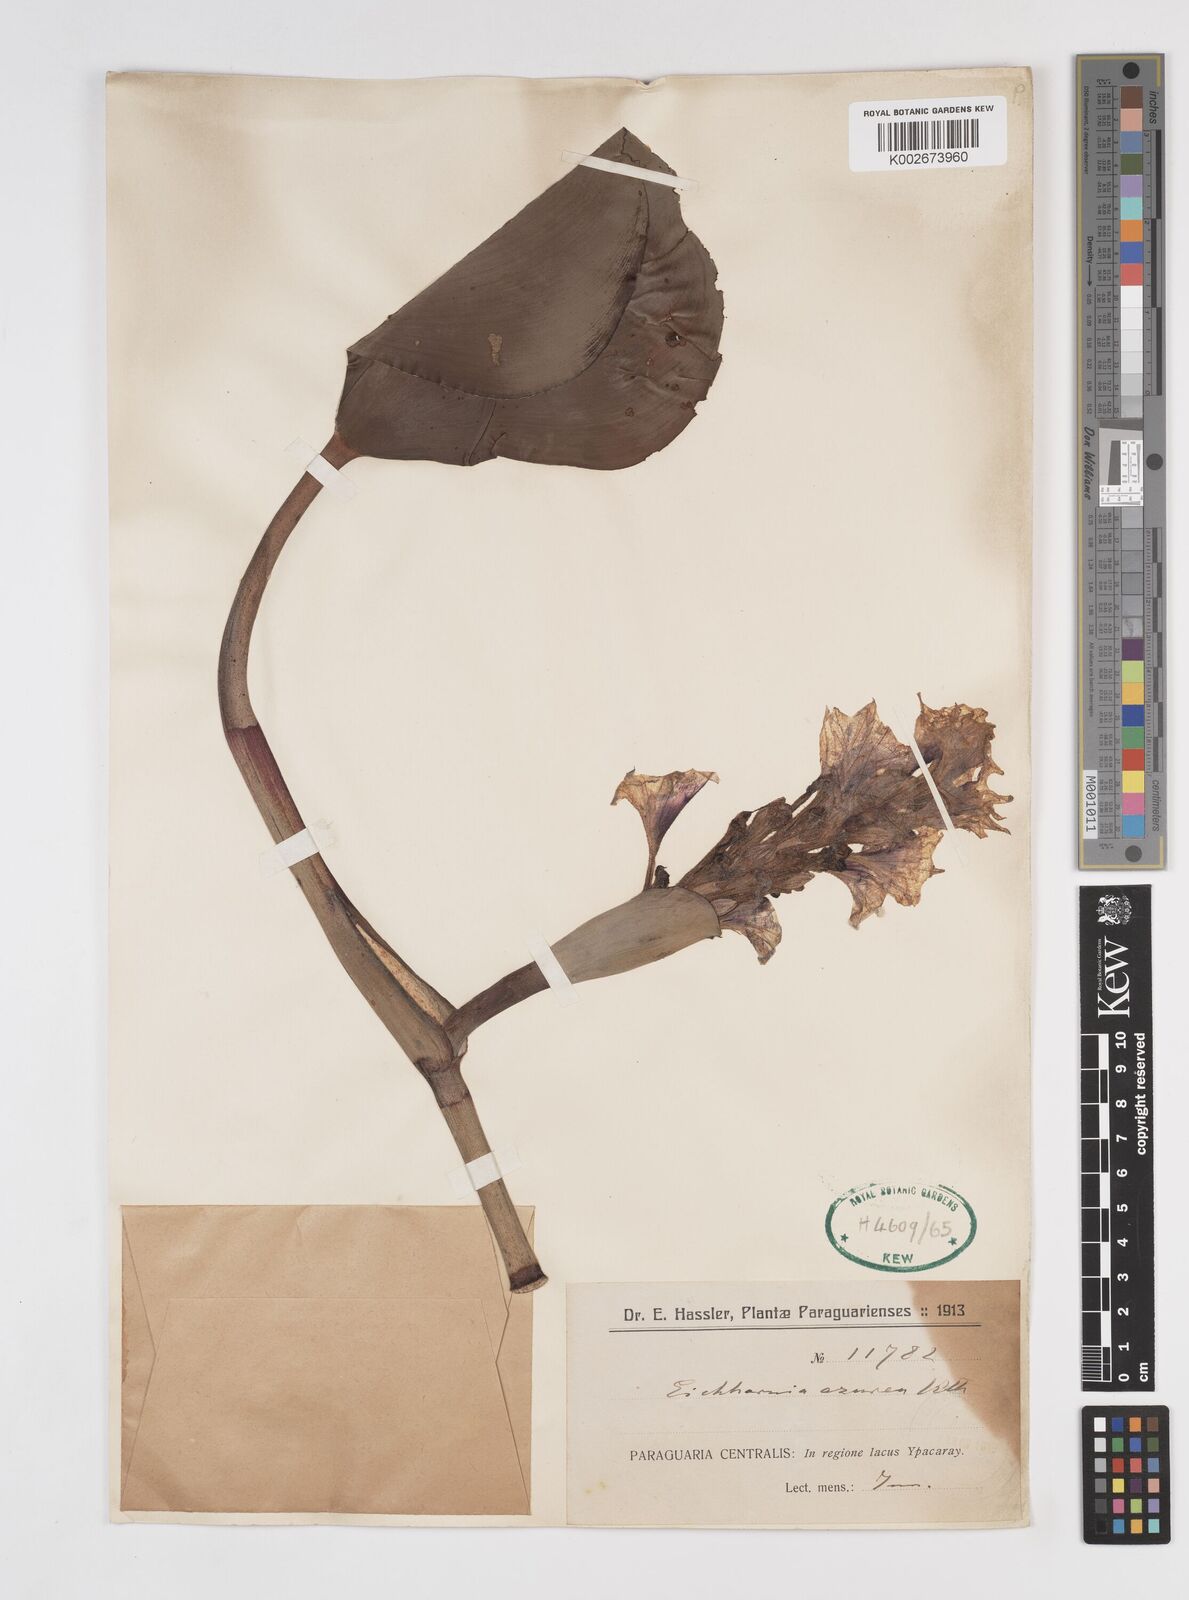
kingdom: Plantae
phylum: Tracheophyta
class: Liliopsida
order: Commelinales
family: Pontederiaceae
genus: Pontederia
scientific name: Pontederia azurea
